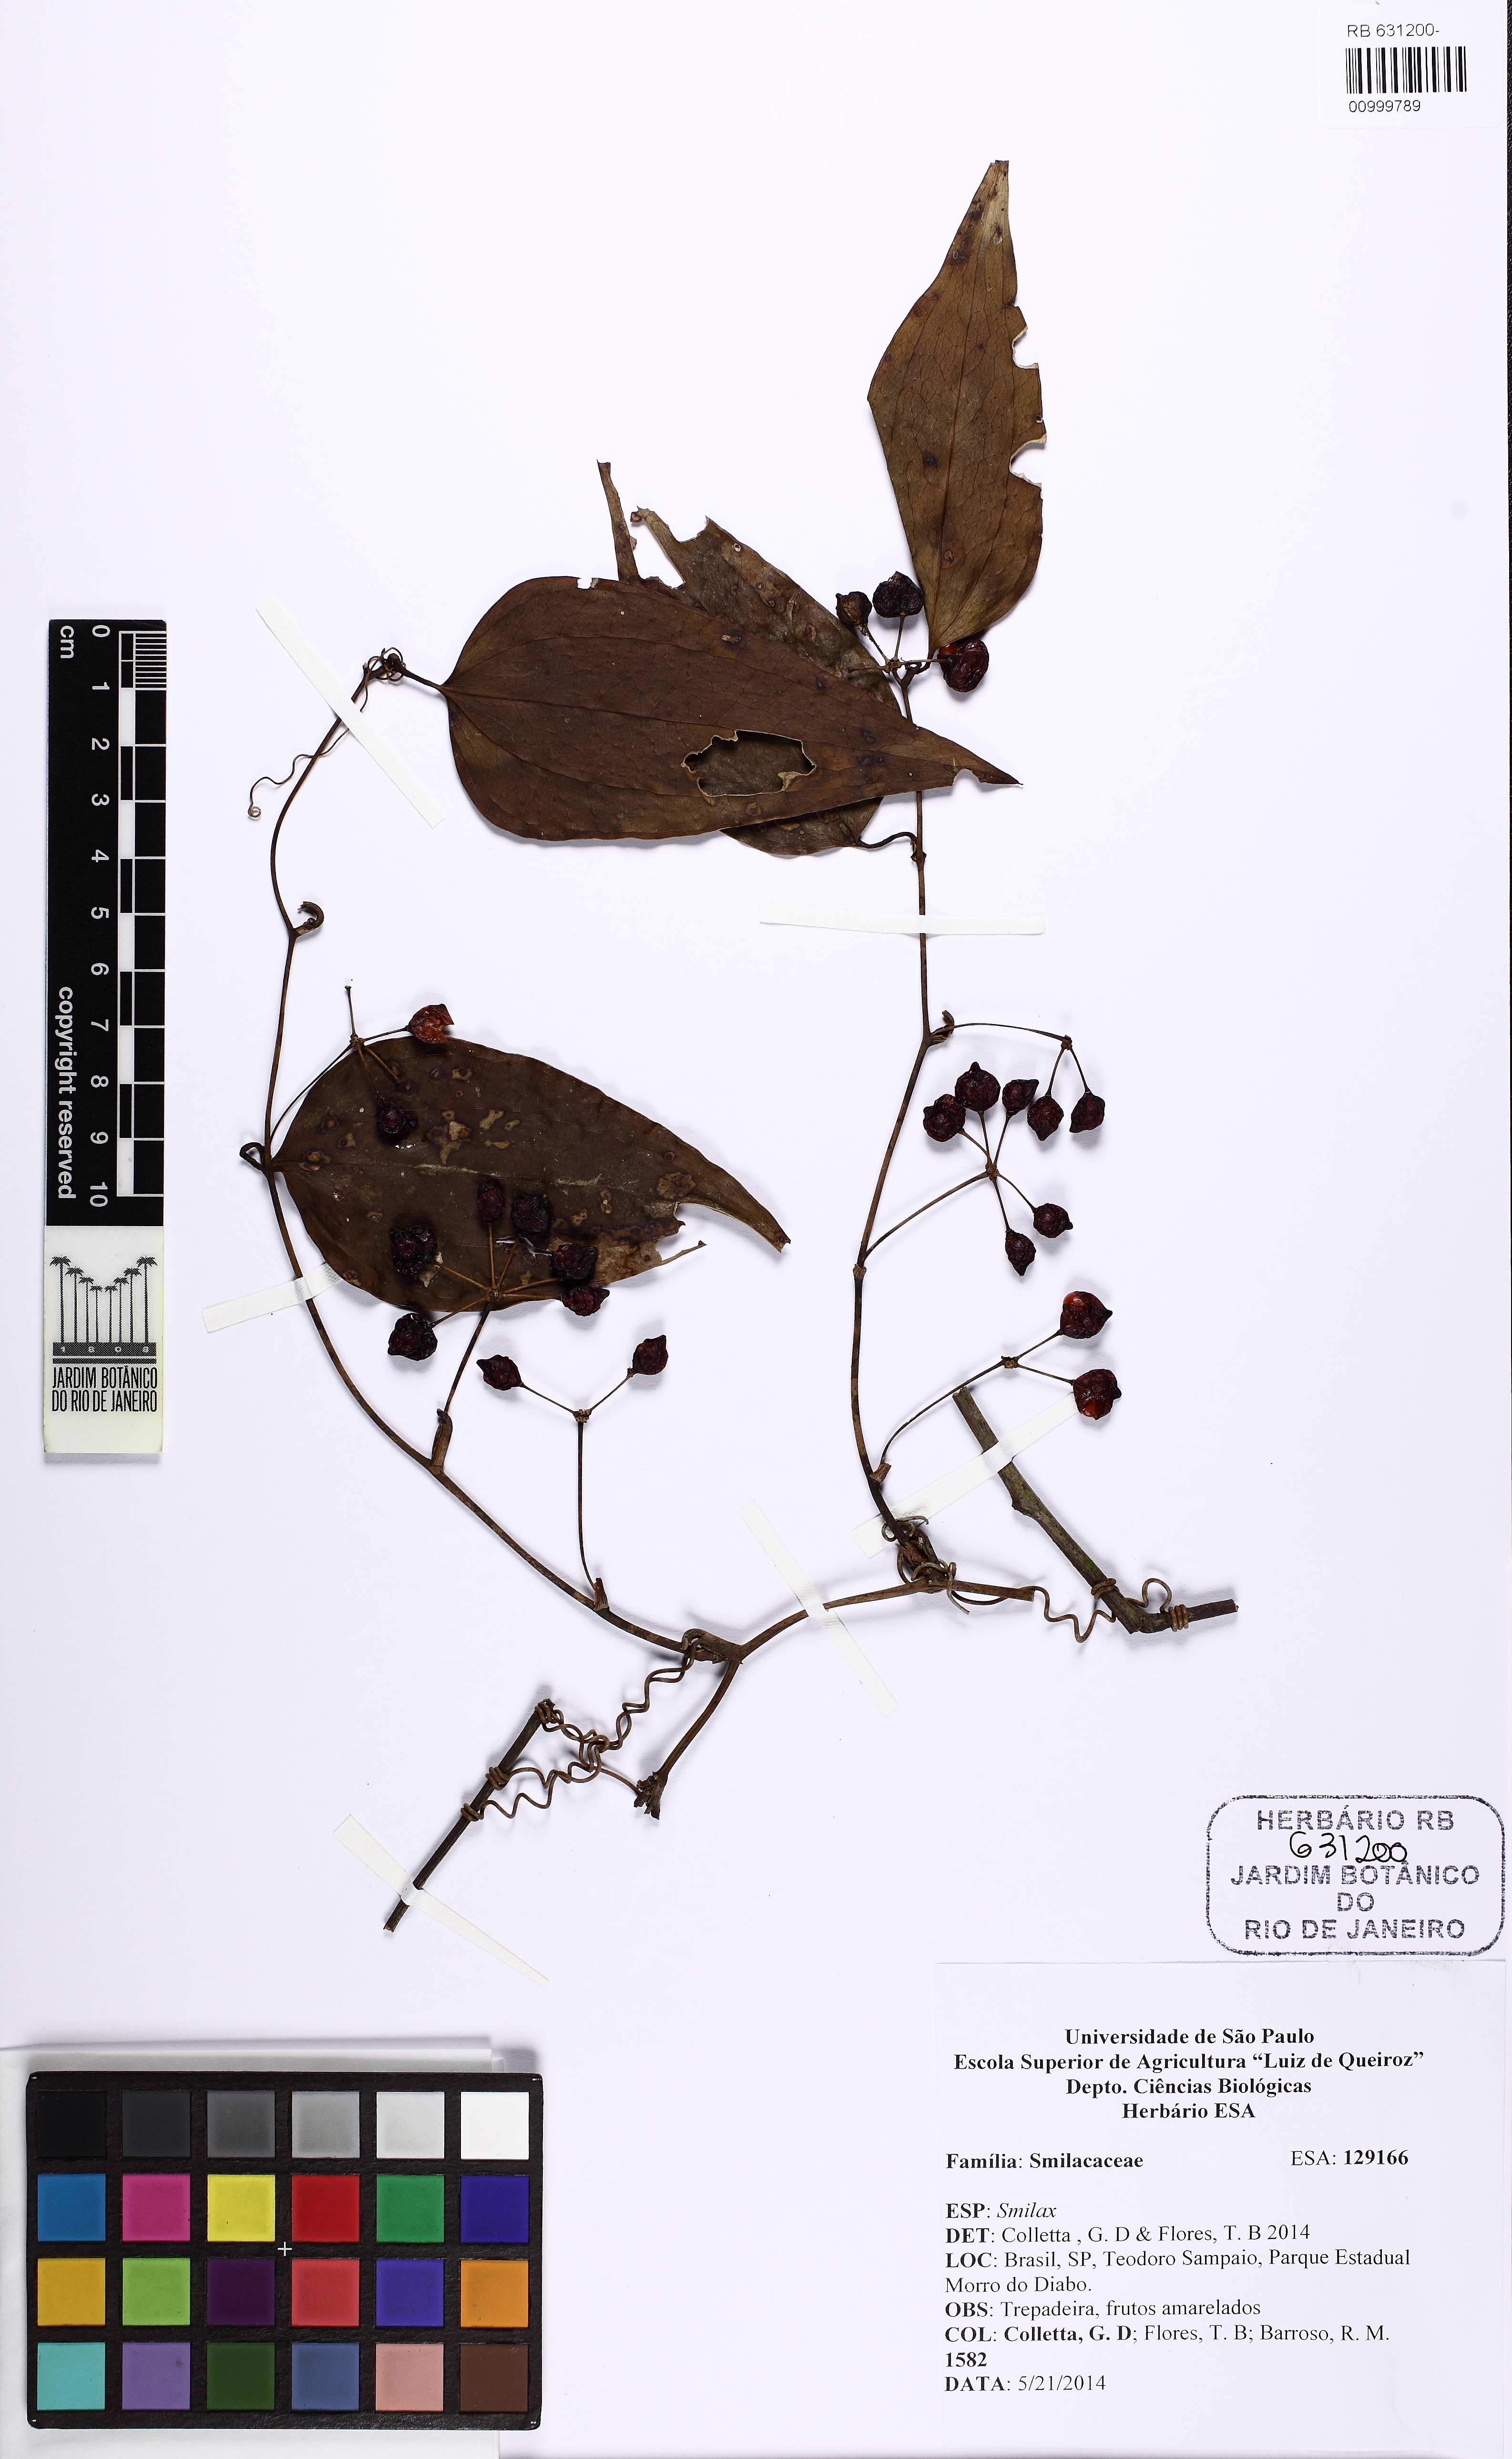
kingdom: Plantae
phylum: Tracheophyta
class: Liliopsida
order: Liliales
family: Smilacaceae
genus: Smilax
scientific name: Smilax
